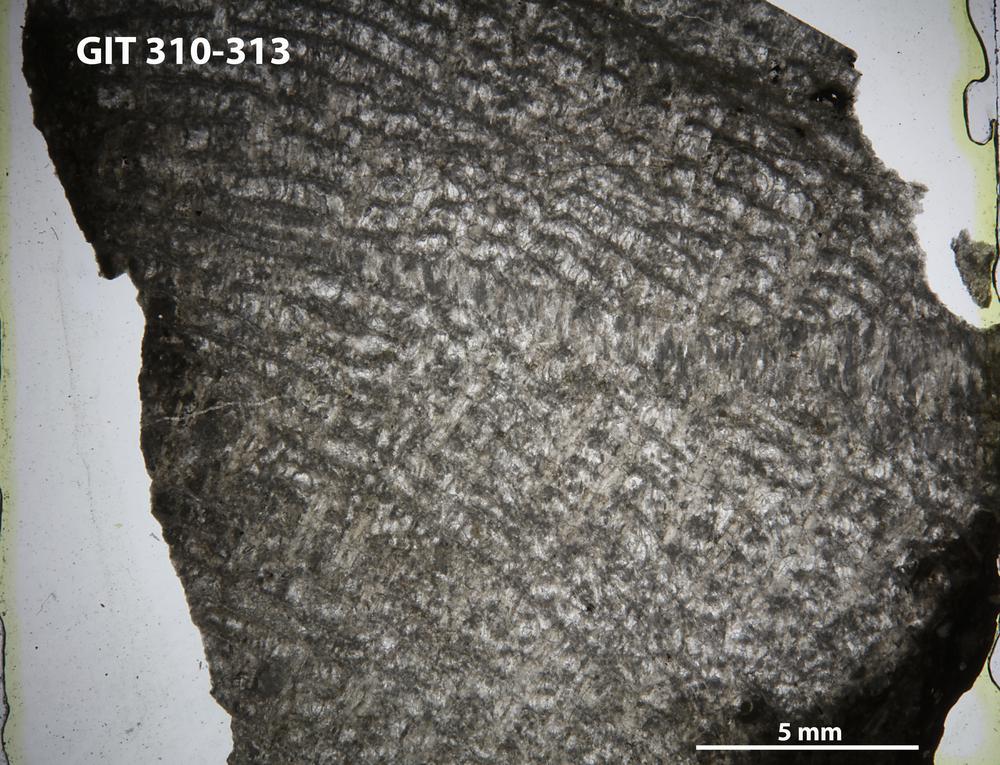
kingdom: Animalia
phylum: Cnidaria
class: Anthozoa
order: Heliolitina
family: Heliolitidae
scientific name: Heliolitidae
